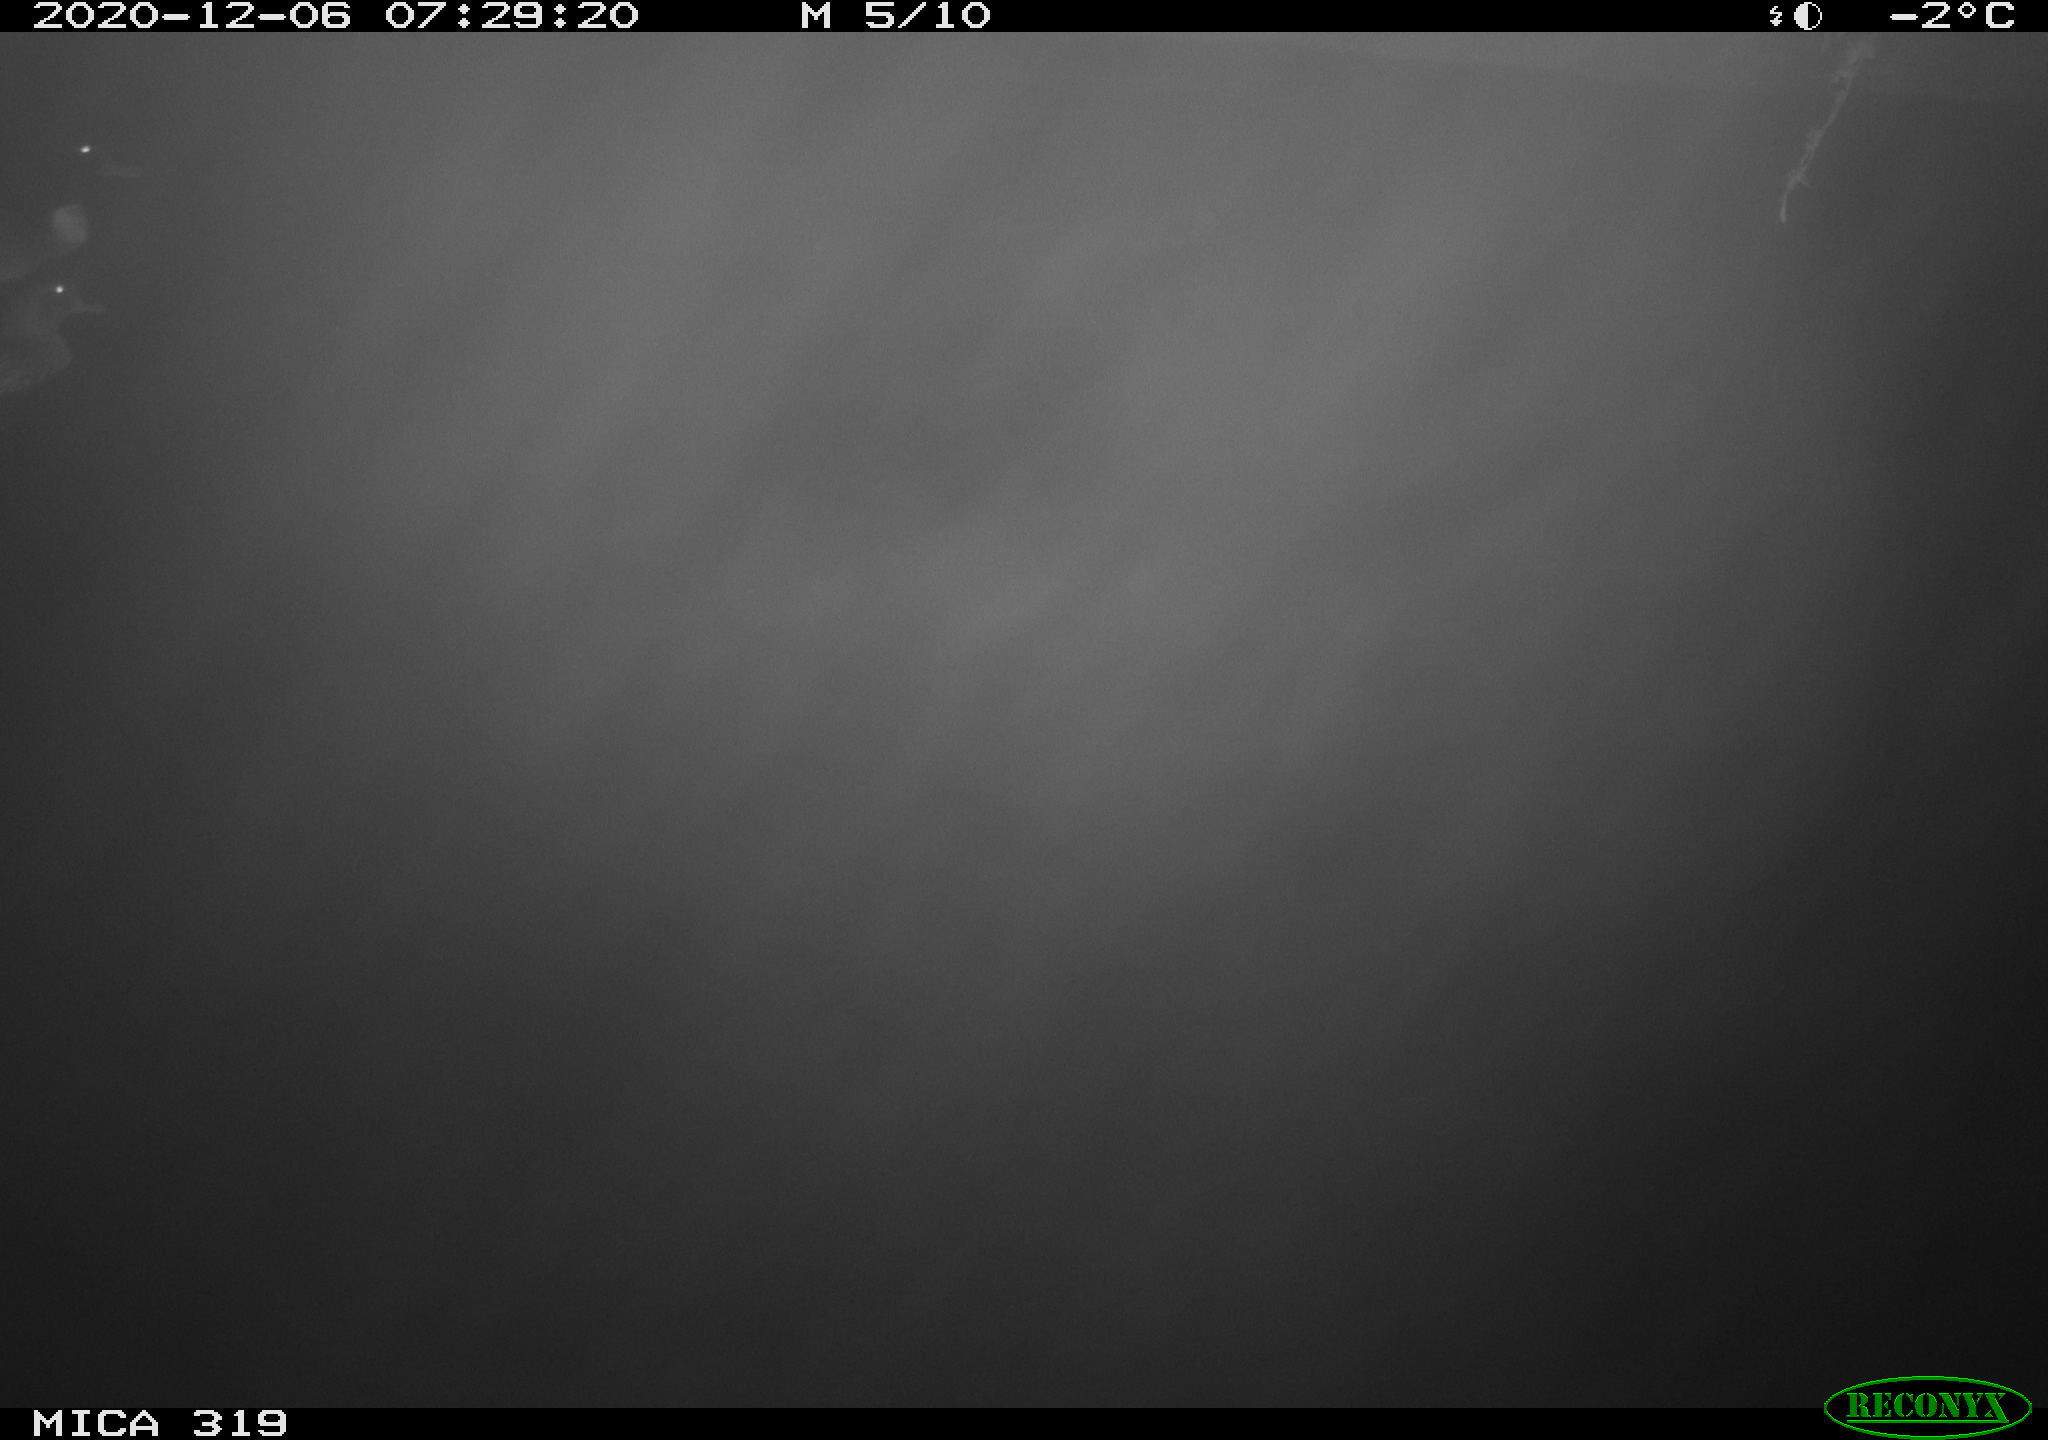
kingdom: Animalia
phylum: Chordata
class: Aves
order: Anseriformes
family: Anatidae
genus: Anas
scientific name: Anas platyrhynchos
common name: Mallard
